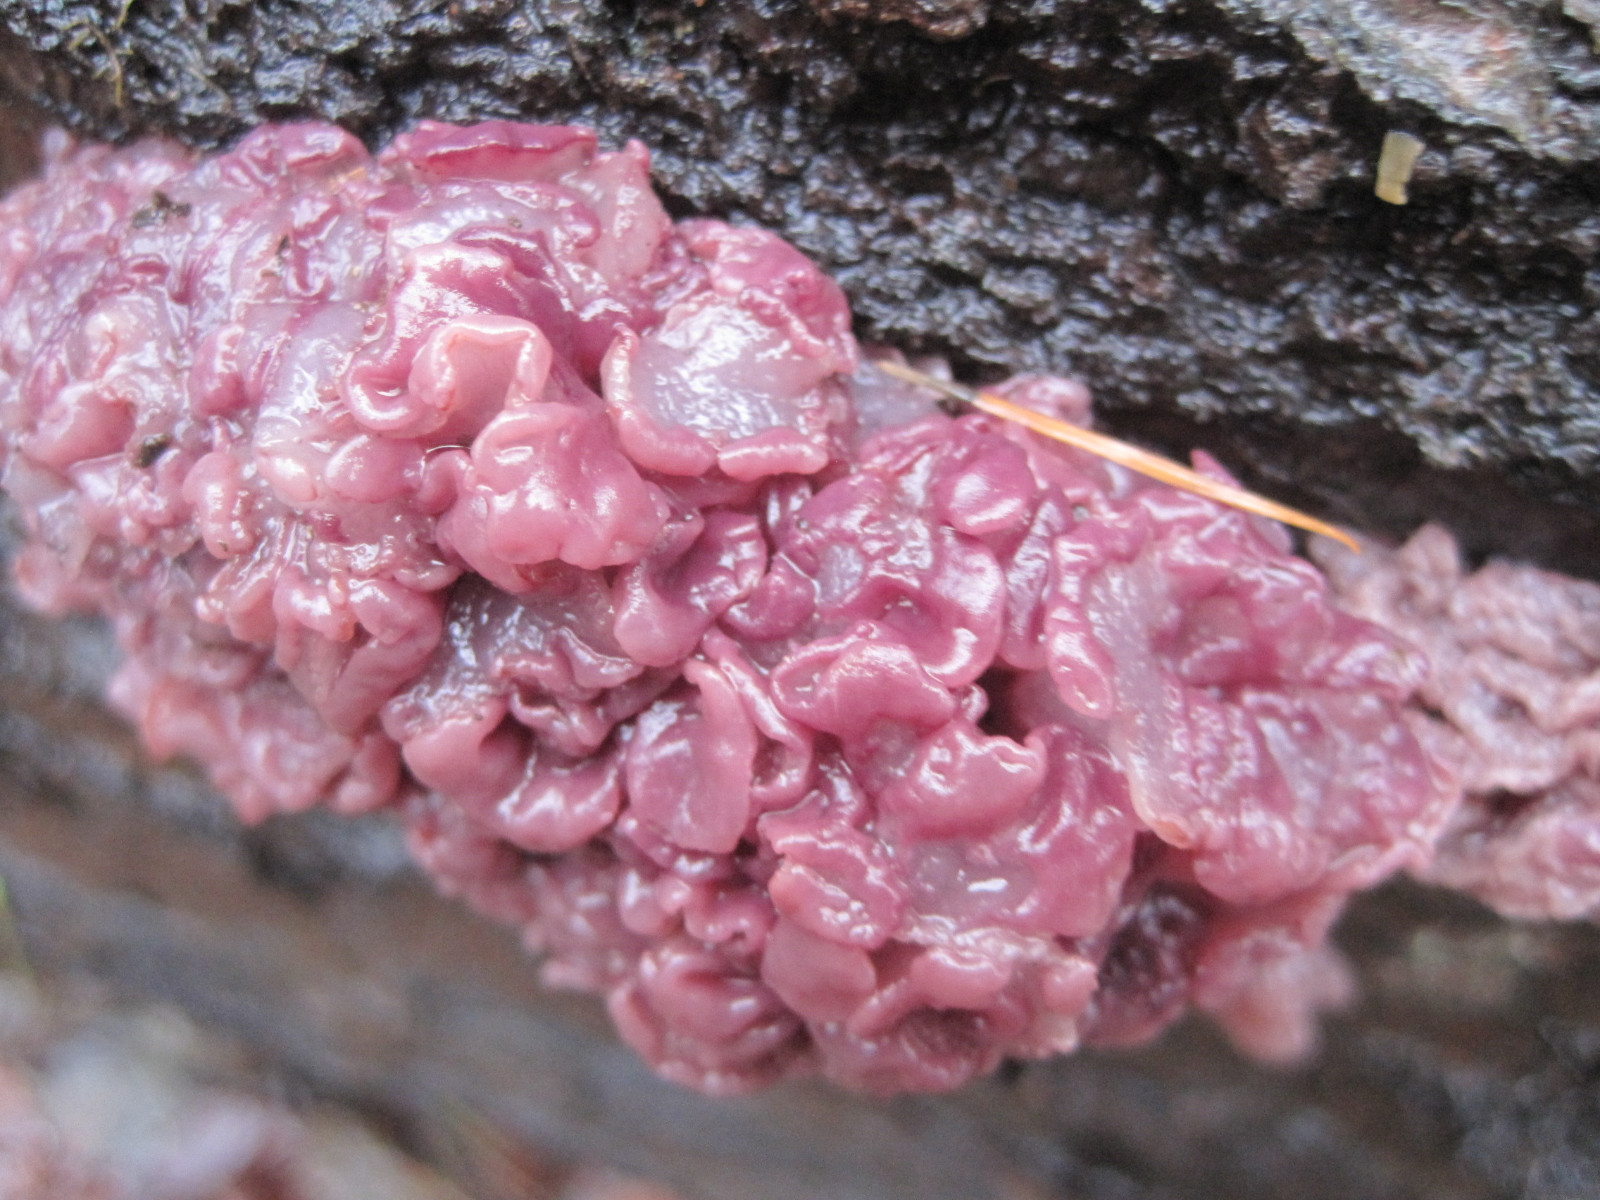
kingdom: Fungi
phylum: Ascomycota
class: Leotiomycetes
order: Helotiales
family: Gelatinodiscaceae
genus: Ascocoryne
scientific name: Ascocoryne sarcoides
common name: rødlilla sejskive
